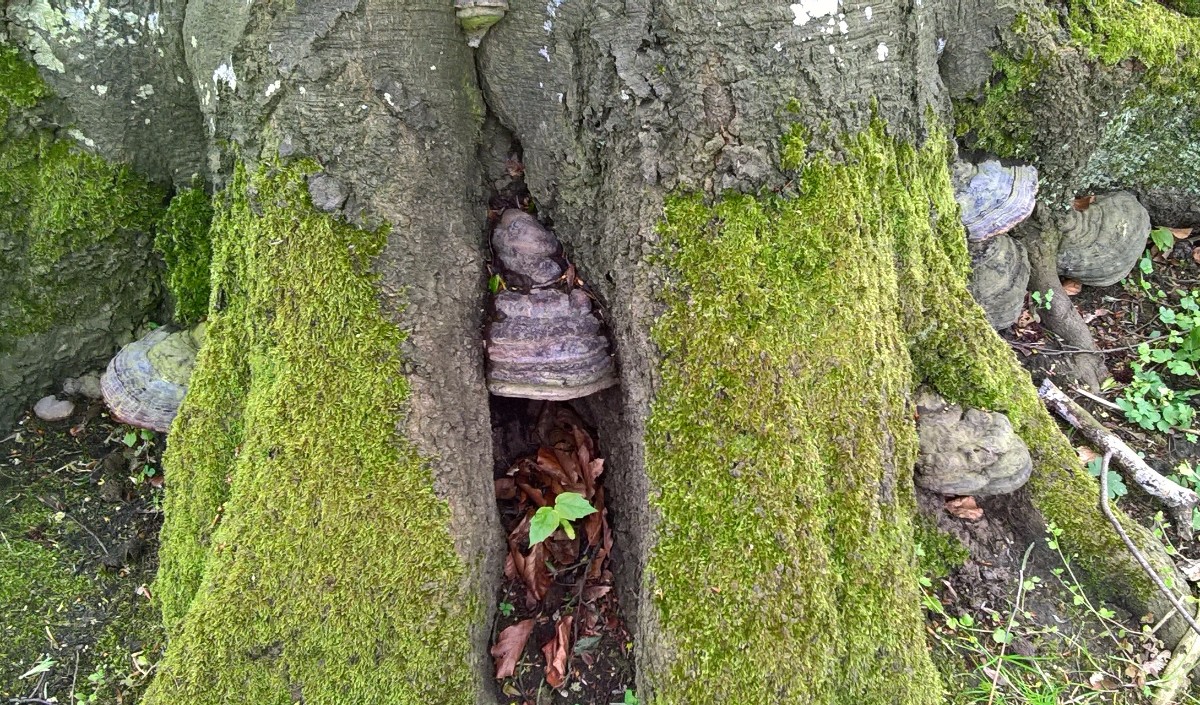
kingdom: Fungi
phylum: Basidiomycota
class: Agaricomycetes
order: Polyporales
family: Polyporaceae
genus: Ganoderma
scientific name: Ganoderma pfeifferi
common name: kobberrød lakporesvamp
